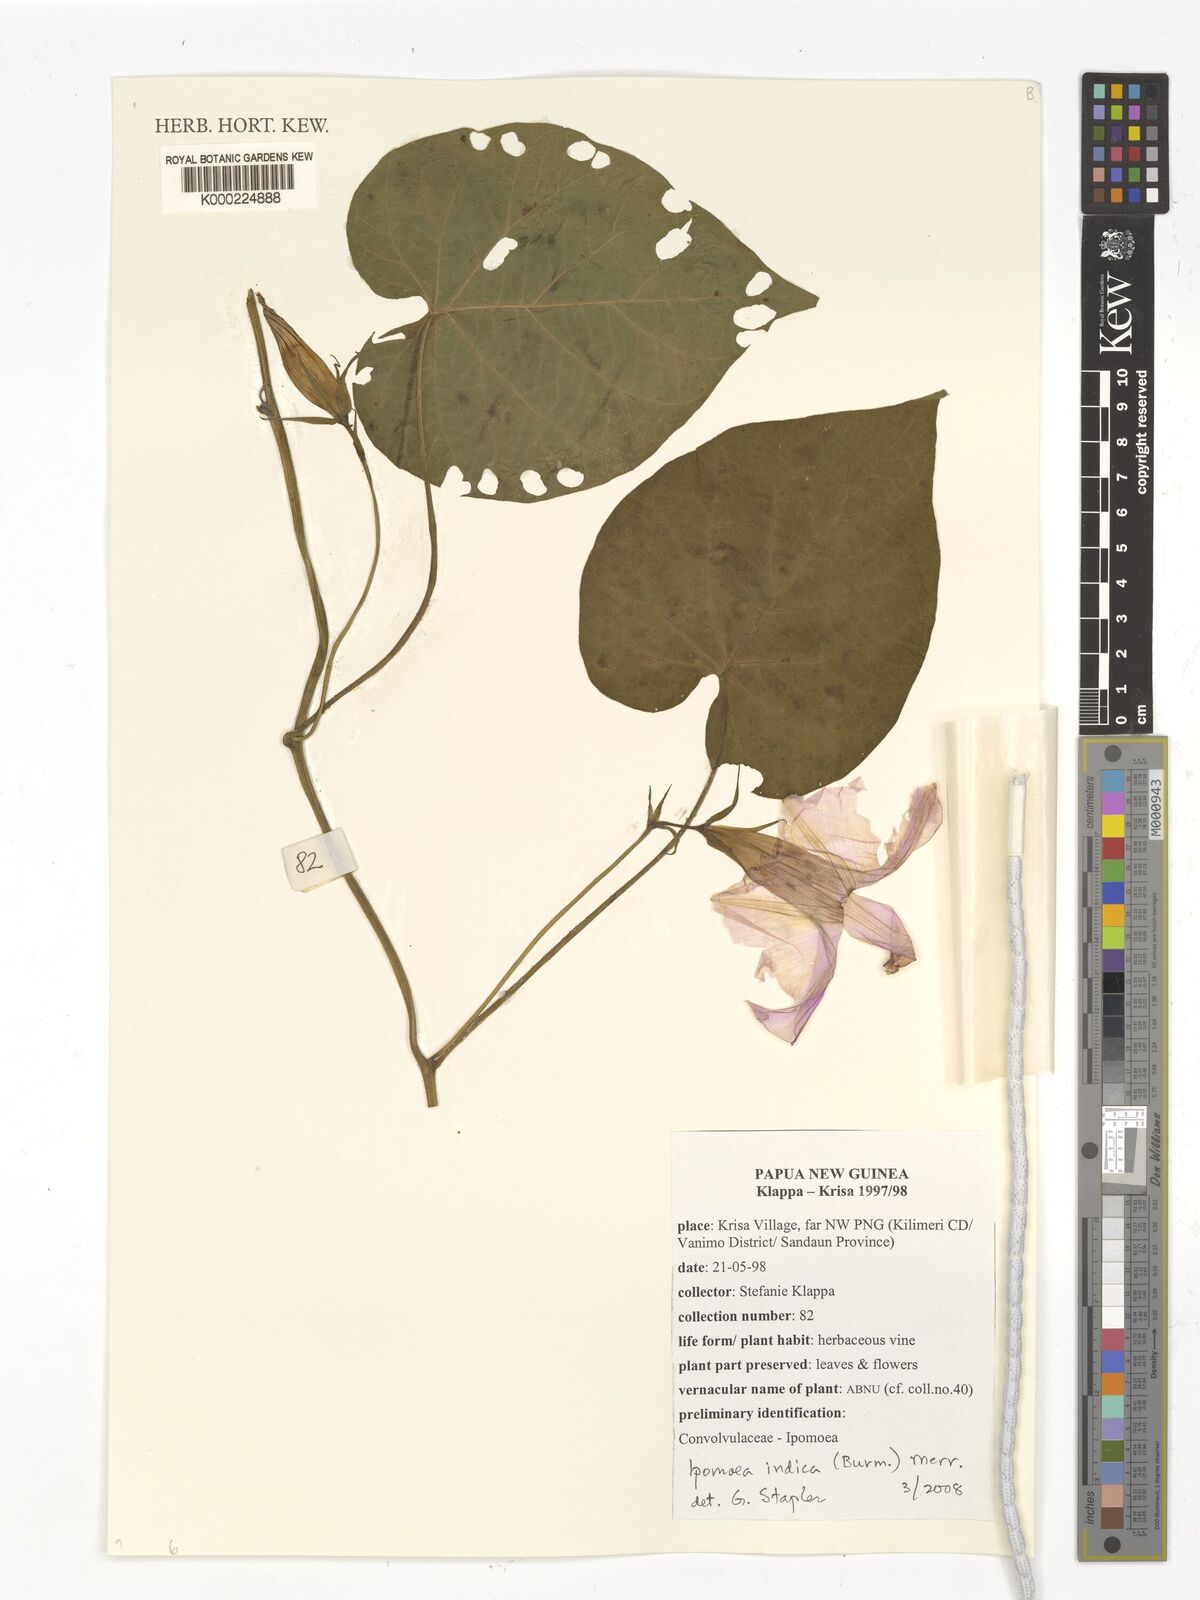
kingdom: Plantae
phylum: Tracheophyta
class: Magnoliopsida
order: Solanales
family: Convolvulaceae
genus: Ipomoea
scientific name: Ipomoea indica
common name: Blue dawnflower
